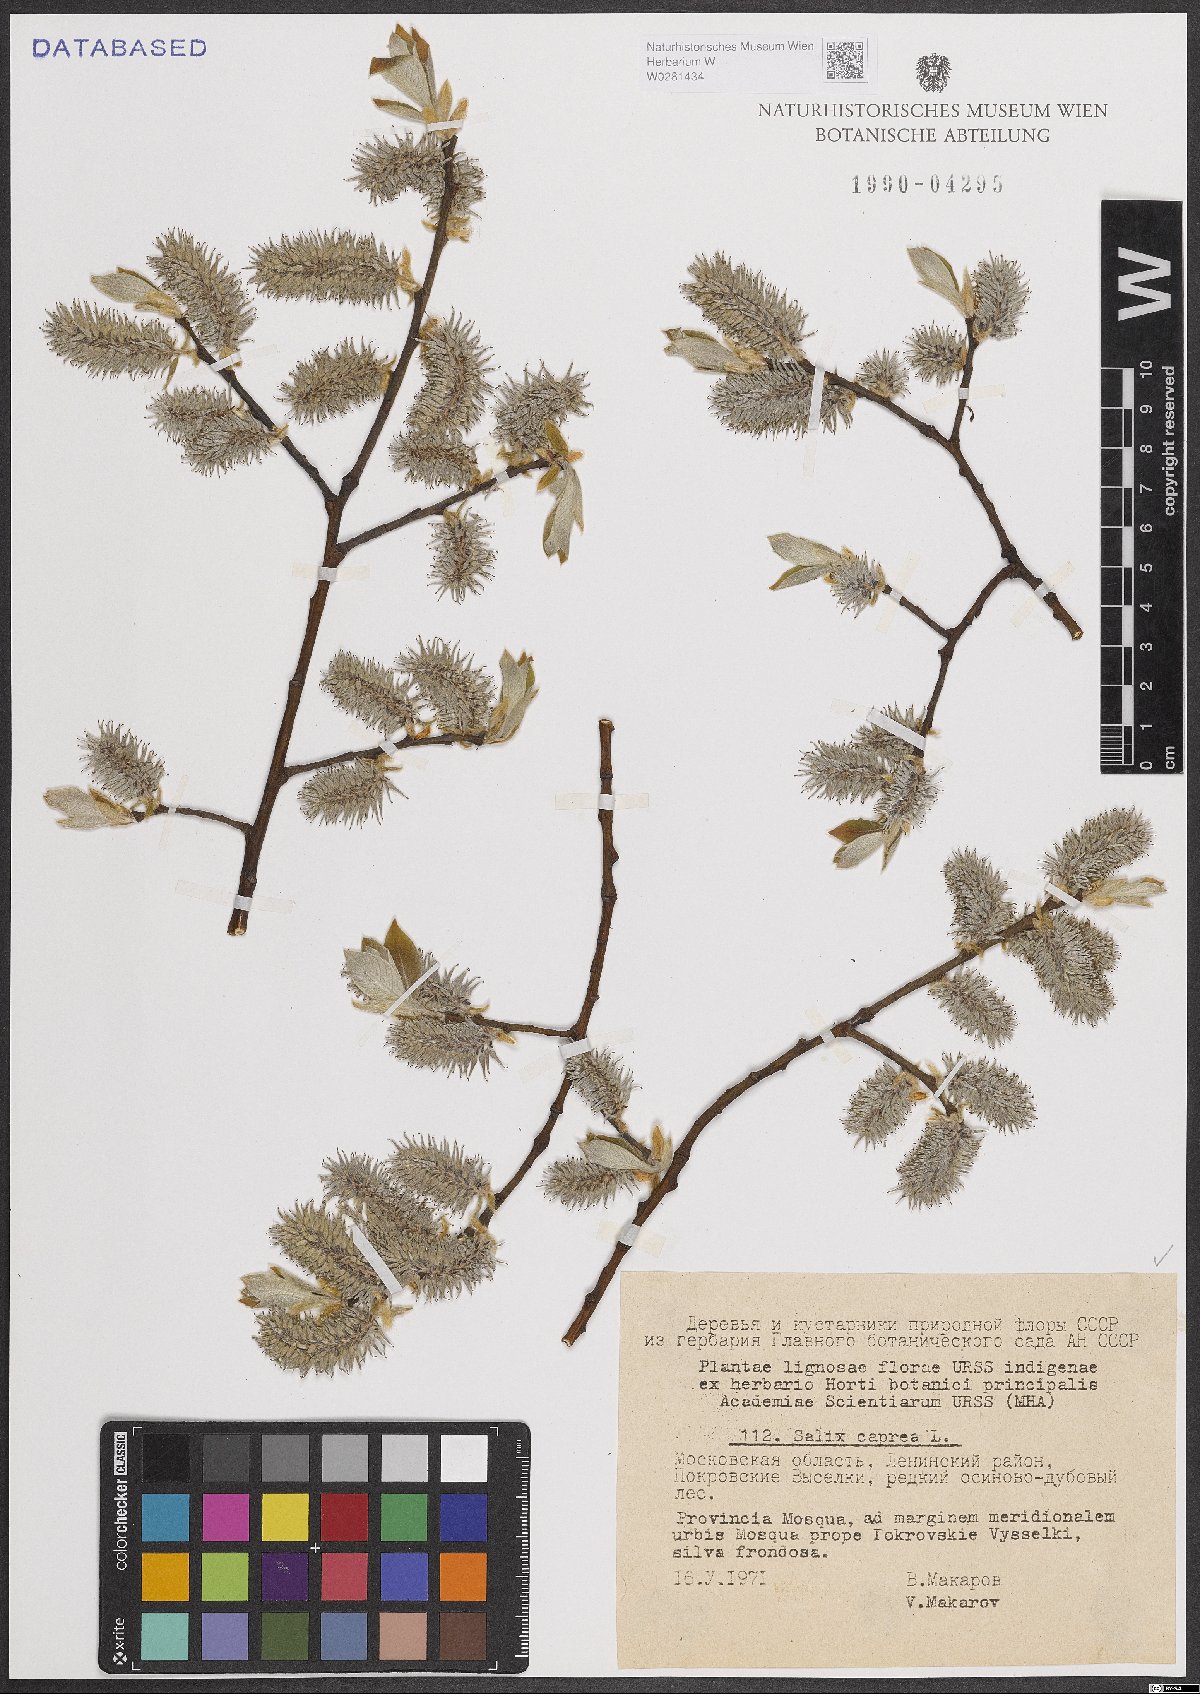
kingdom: Plantae
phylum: Tracheophyta
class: Magnoliopsida
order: Malpighiales
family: Salicaceae
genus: Salix
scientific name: Salix caprea
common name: Goat willow
